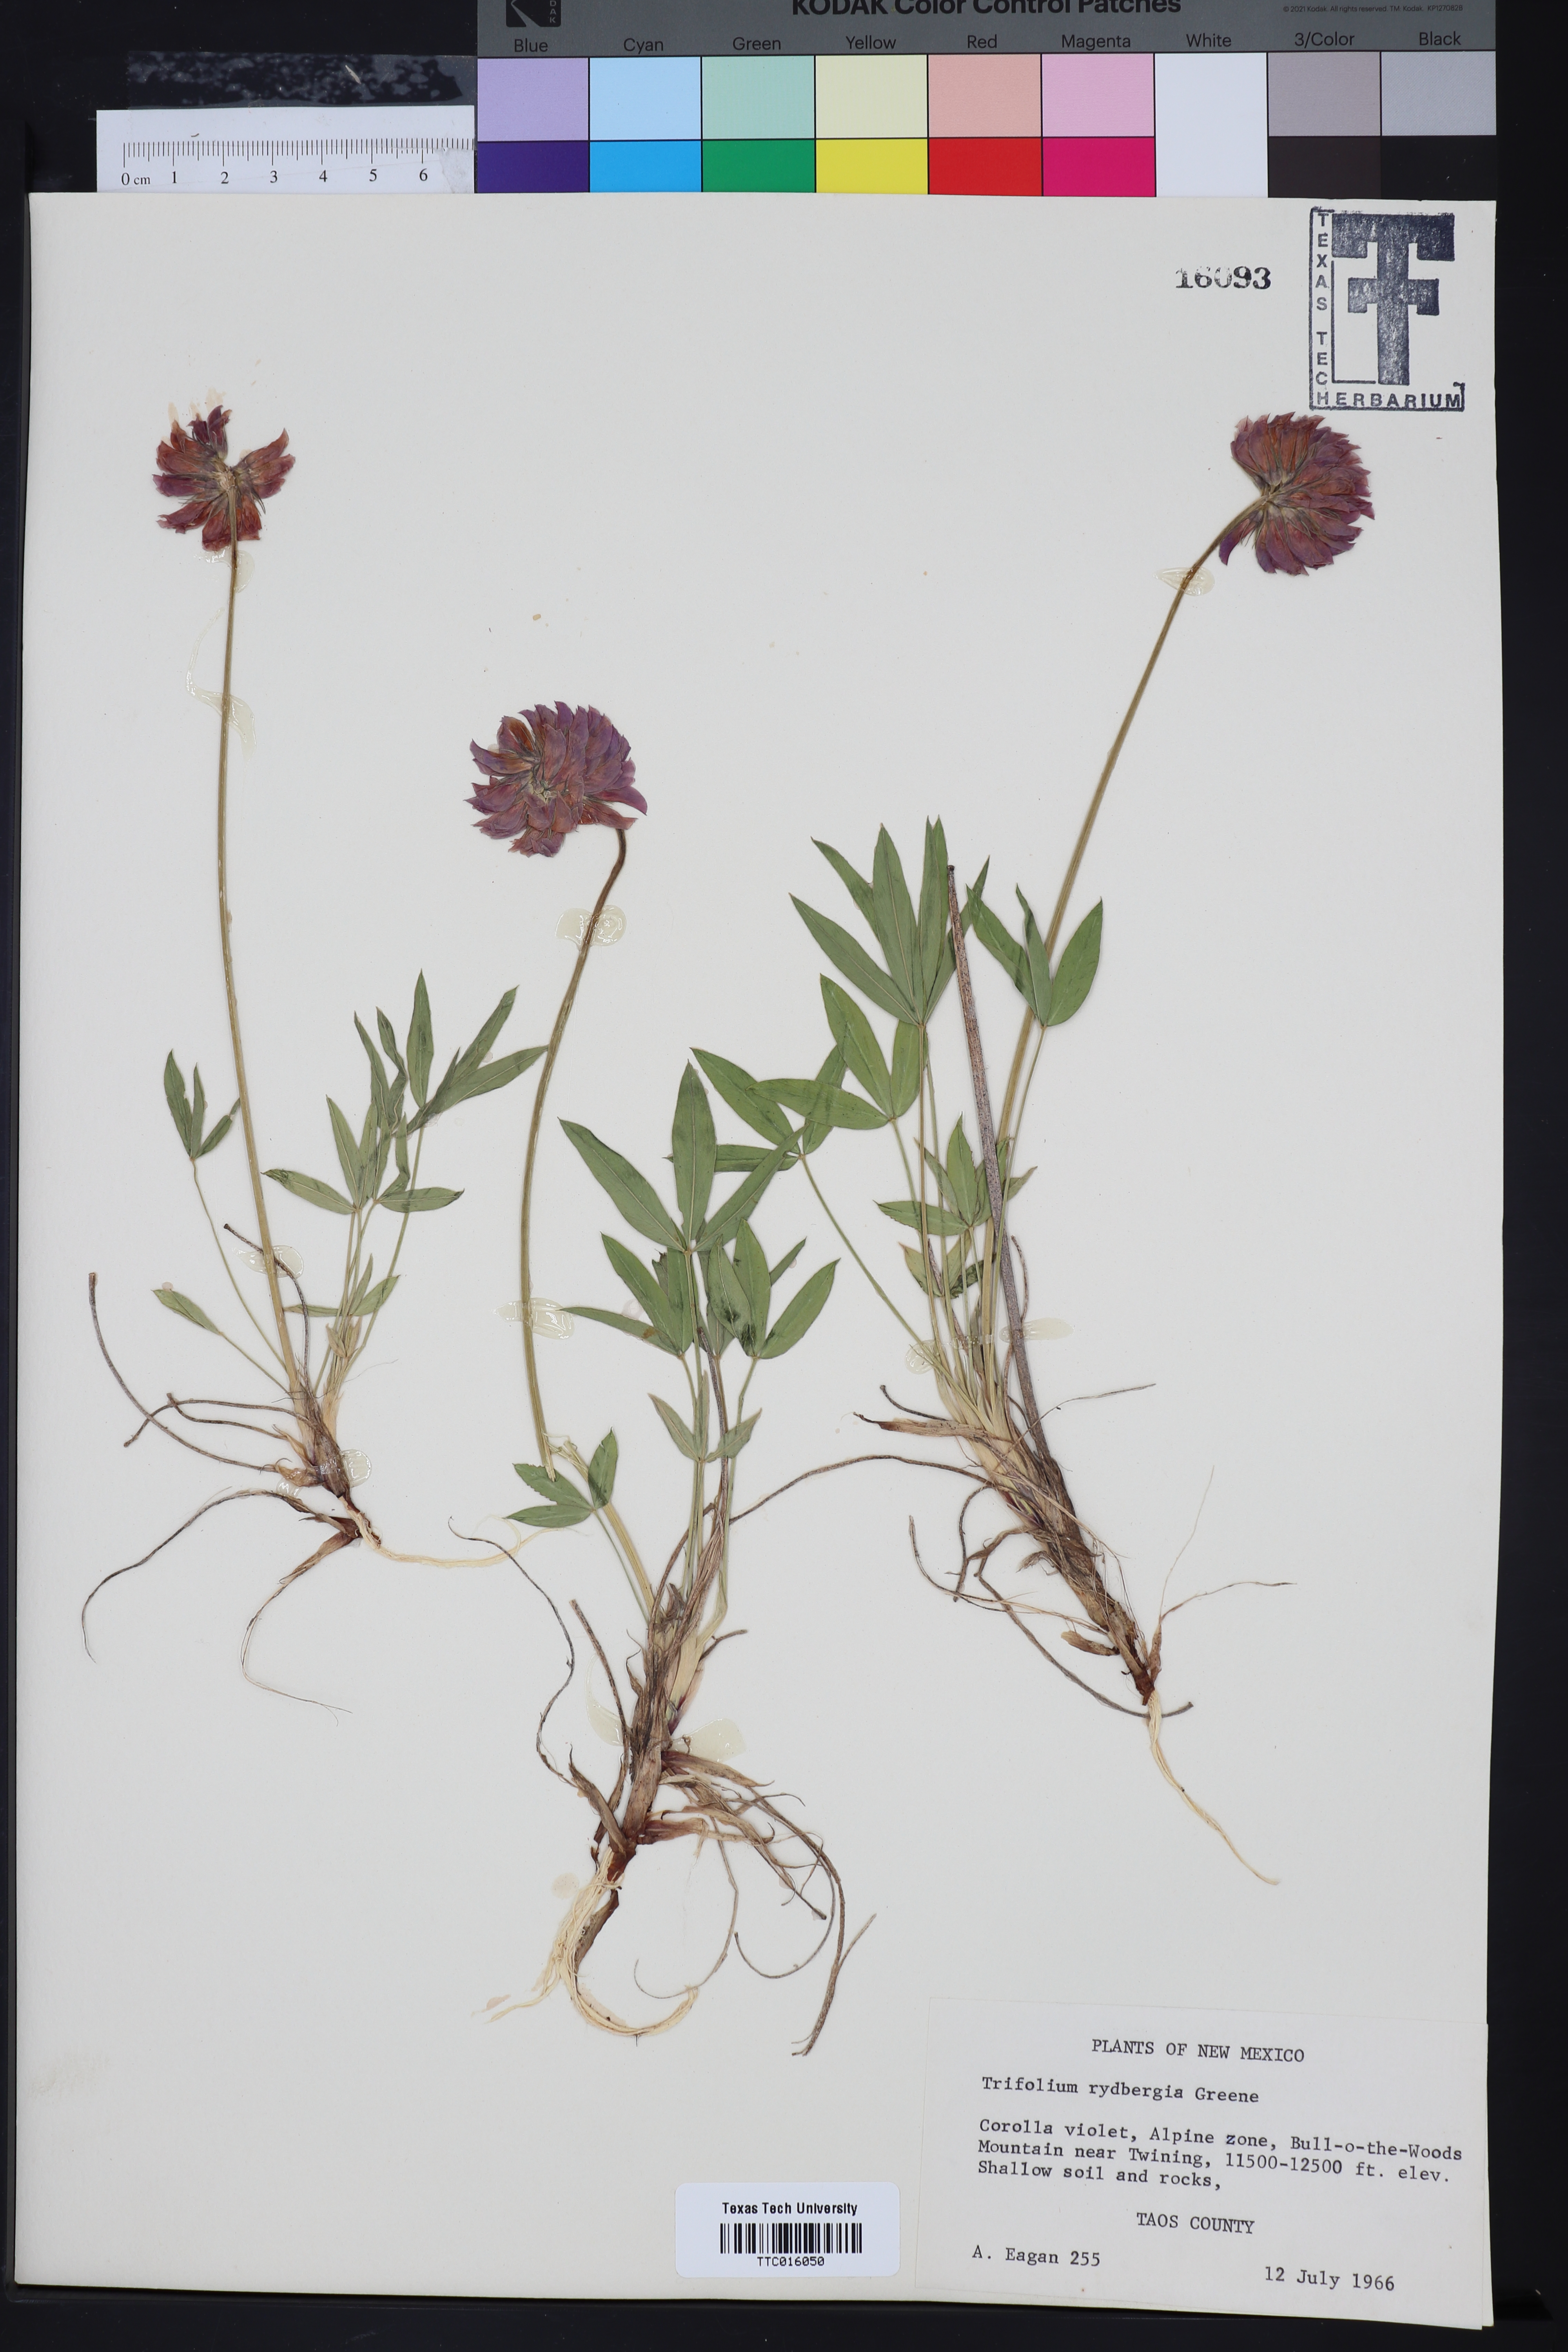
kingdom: Plantae
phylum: Tracheophyta
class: Magnoliopsida
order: Fabales
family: Fabaceae
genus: Trifolium
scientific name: Trifolium longipes
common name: Long-stalk clover
